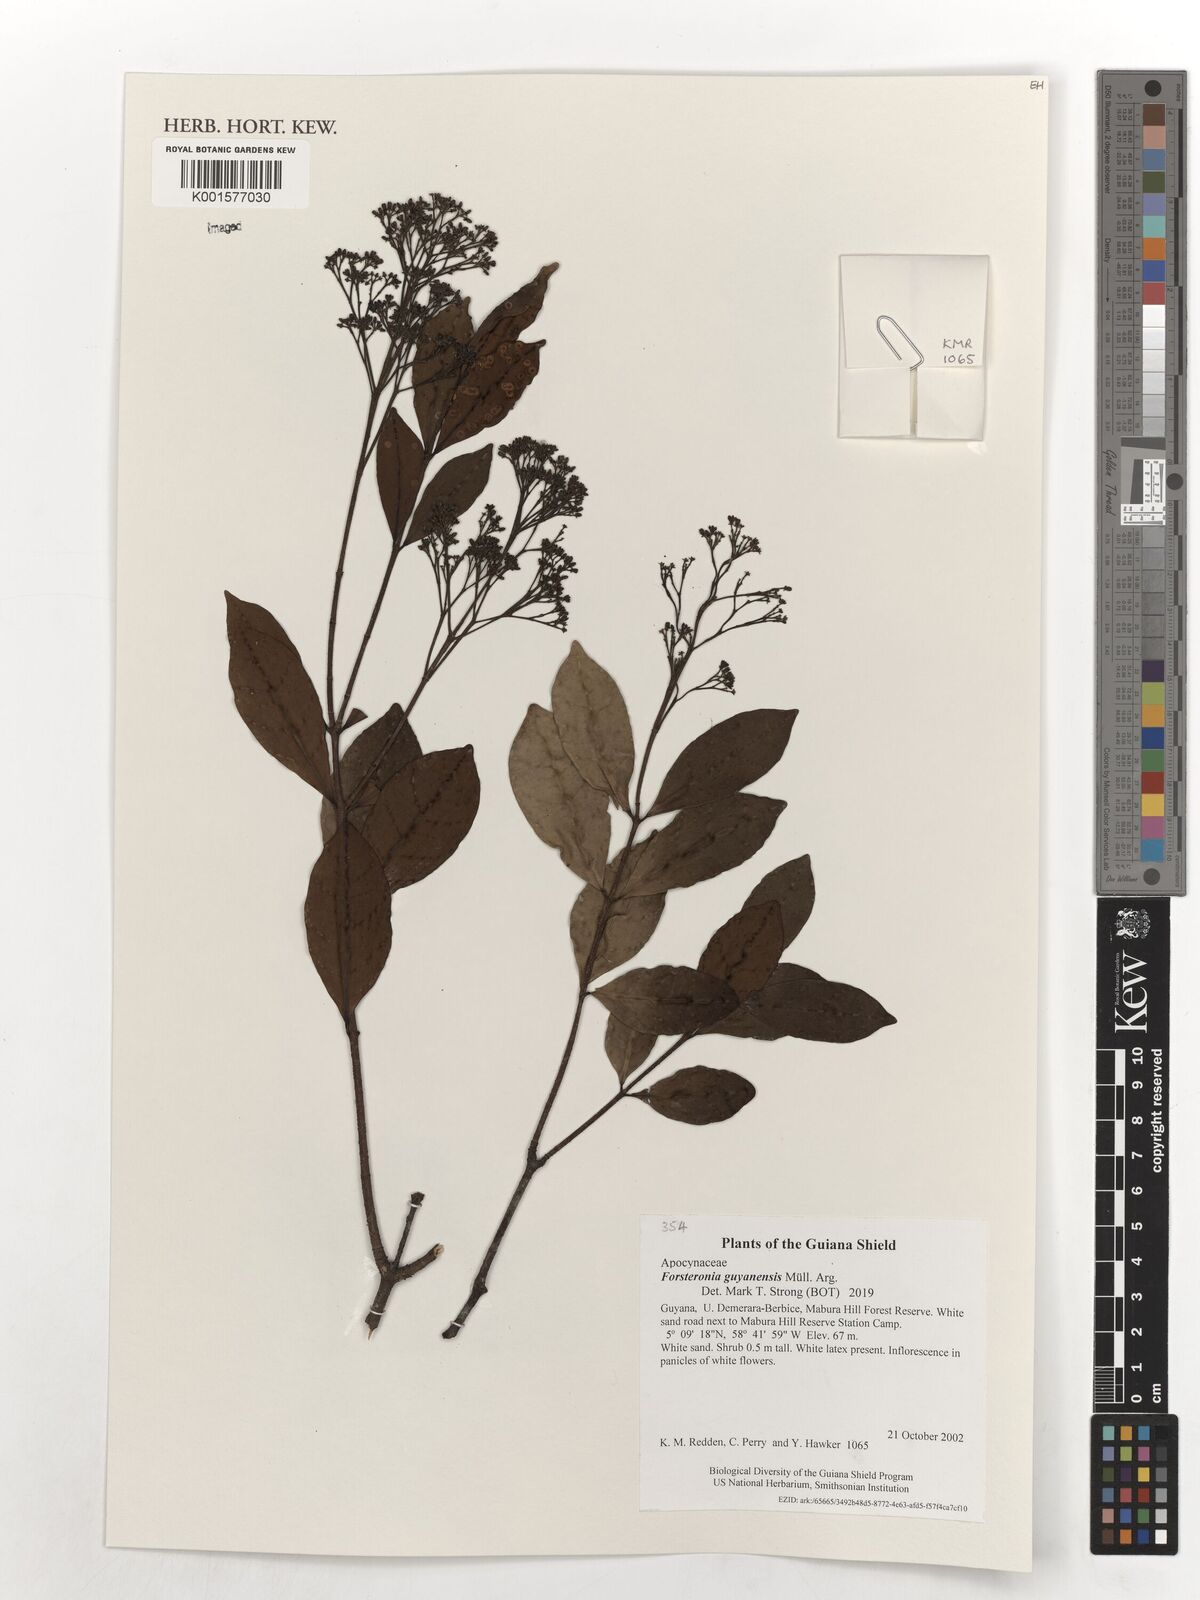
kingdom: Plantae
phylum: Tracheophyta
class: Magnoliopsida
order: Gentianales
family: Apocynaceae
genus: Forsteronia
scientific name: Forsteronia guyanensis
